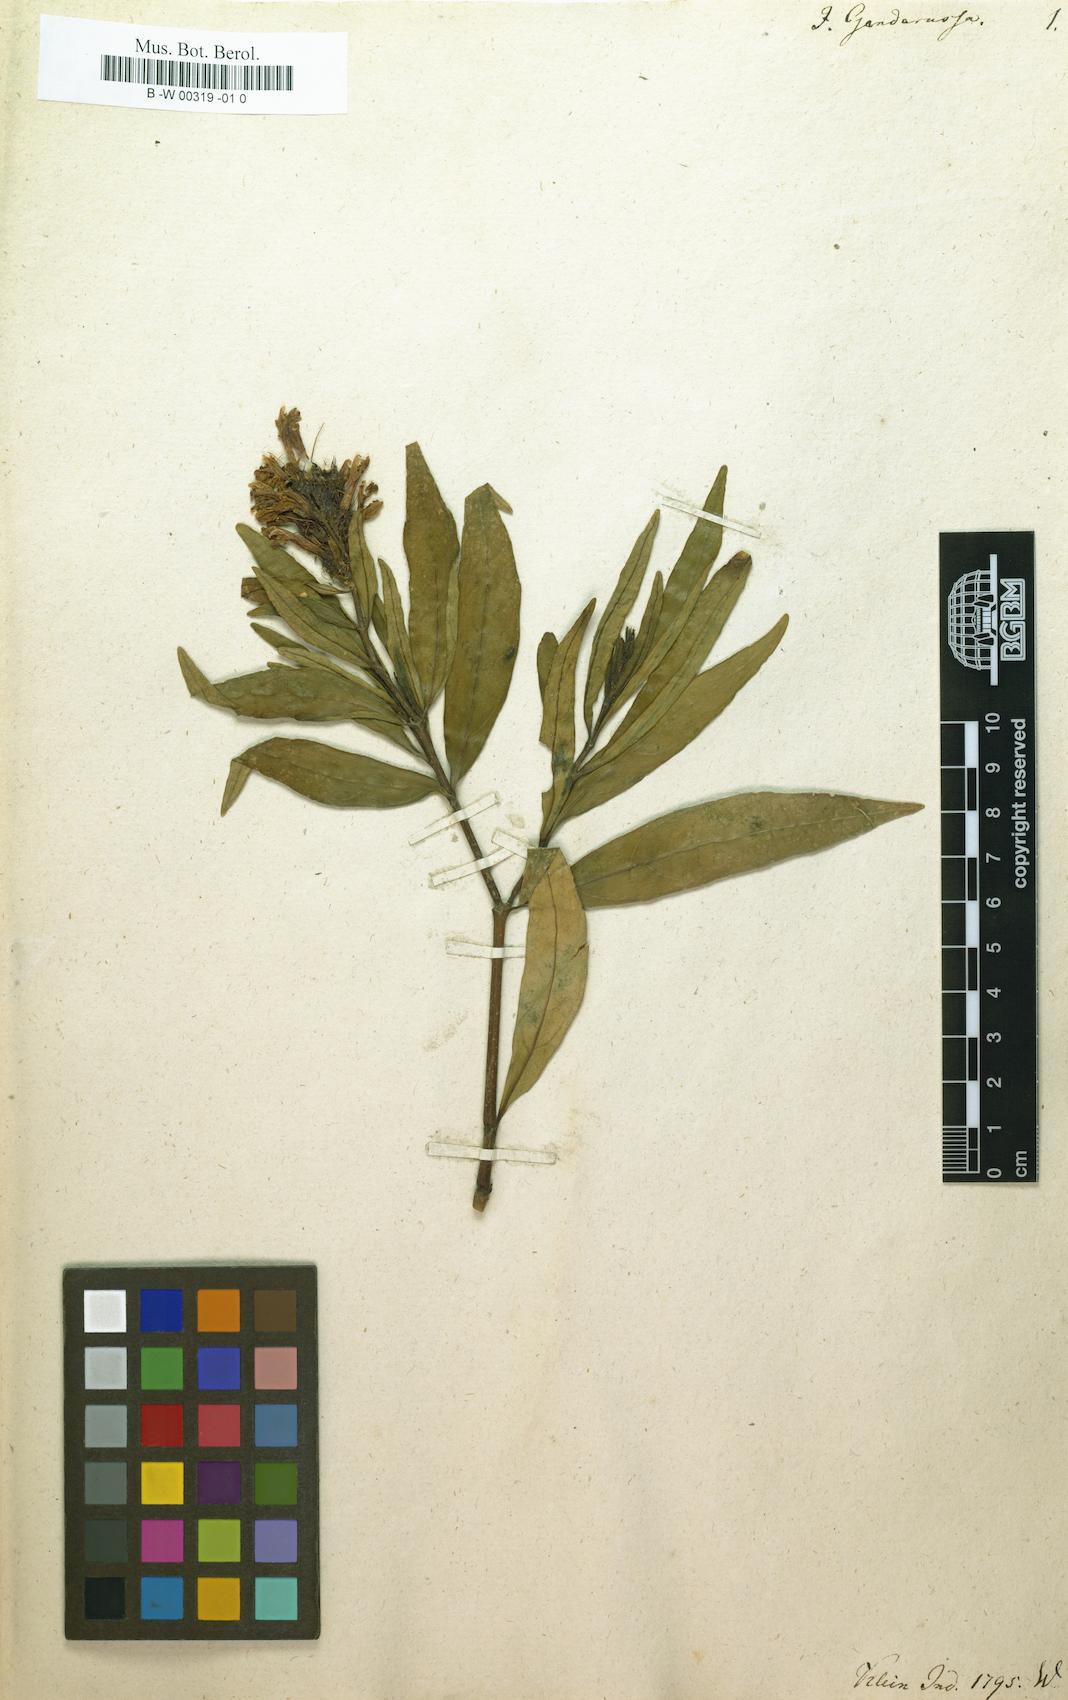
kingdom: Plantae
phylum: Tracheophyta
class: Magnoliopsida
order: Lamiales
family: Acanthaceae
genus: Justicia
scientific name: Justicia gendarussa
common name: Warer willow
